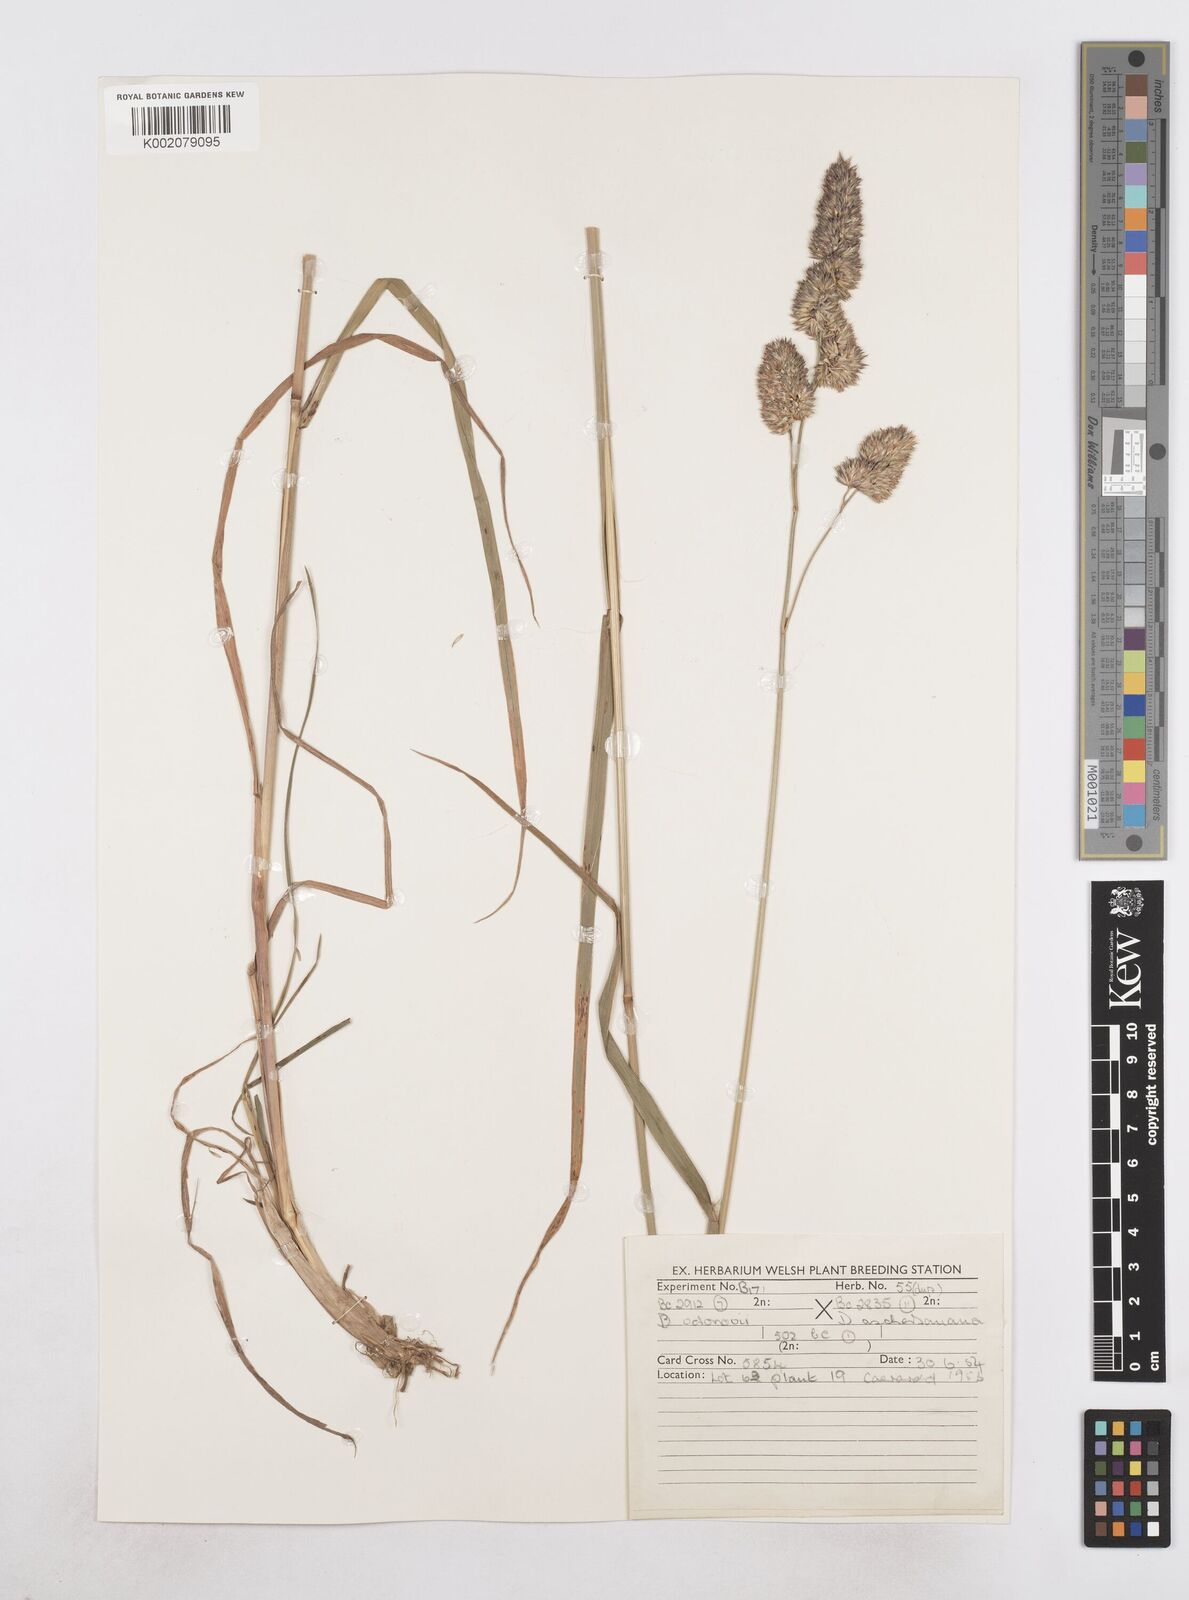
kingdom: Plantae
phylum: Tracheophyta
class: Liliopsida
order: Poales
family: Poaceae
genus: Dactylis
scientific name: Dactylis glomerata
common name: Orchardgrass
